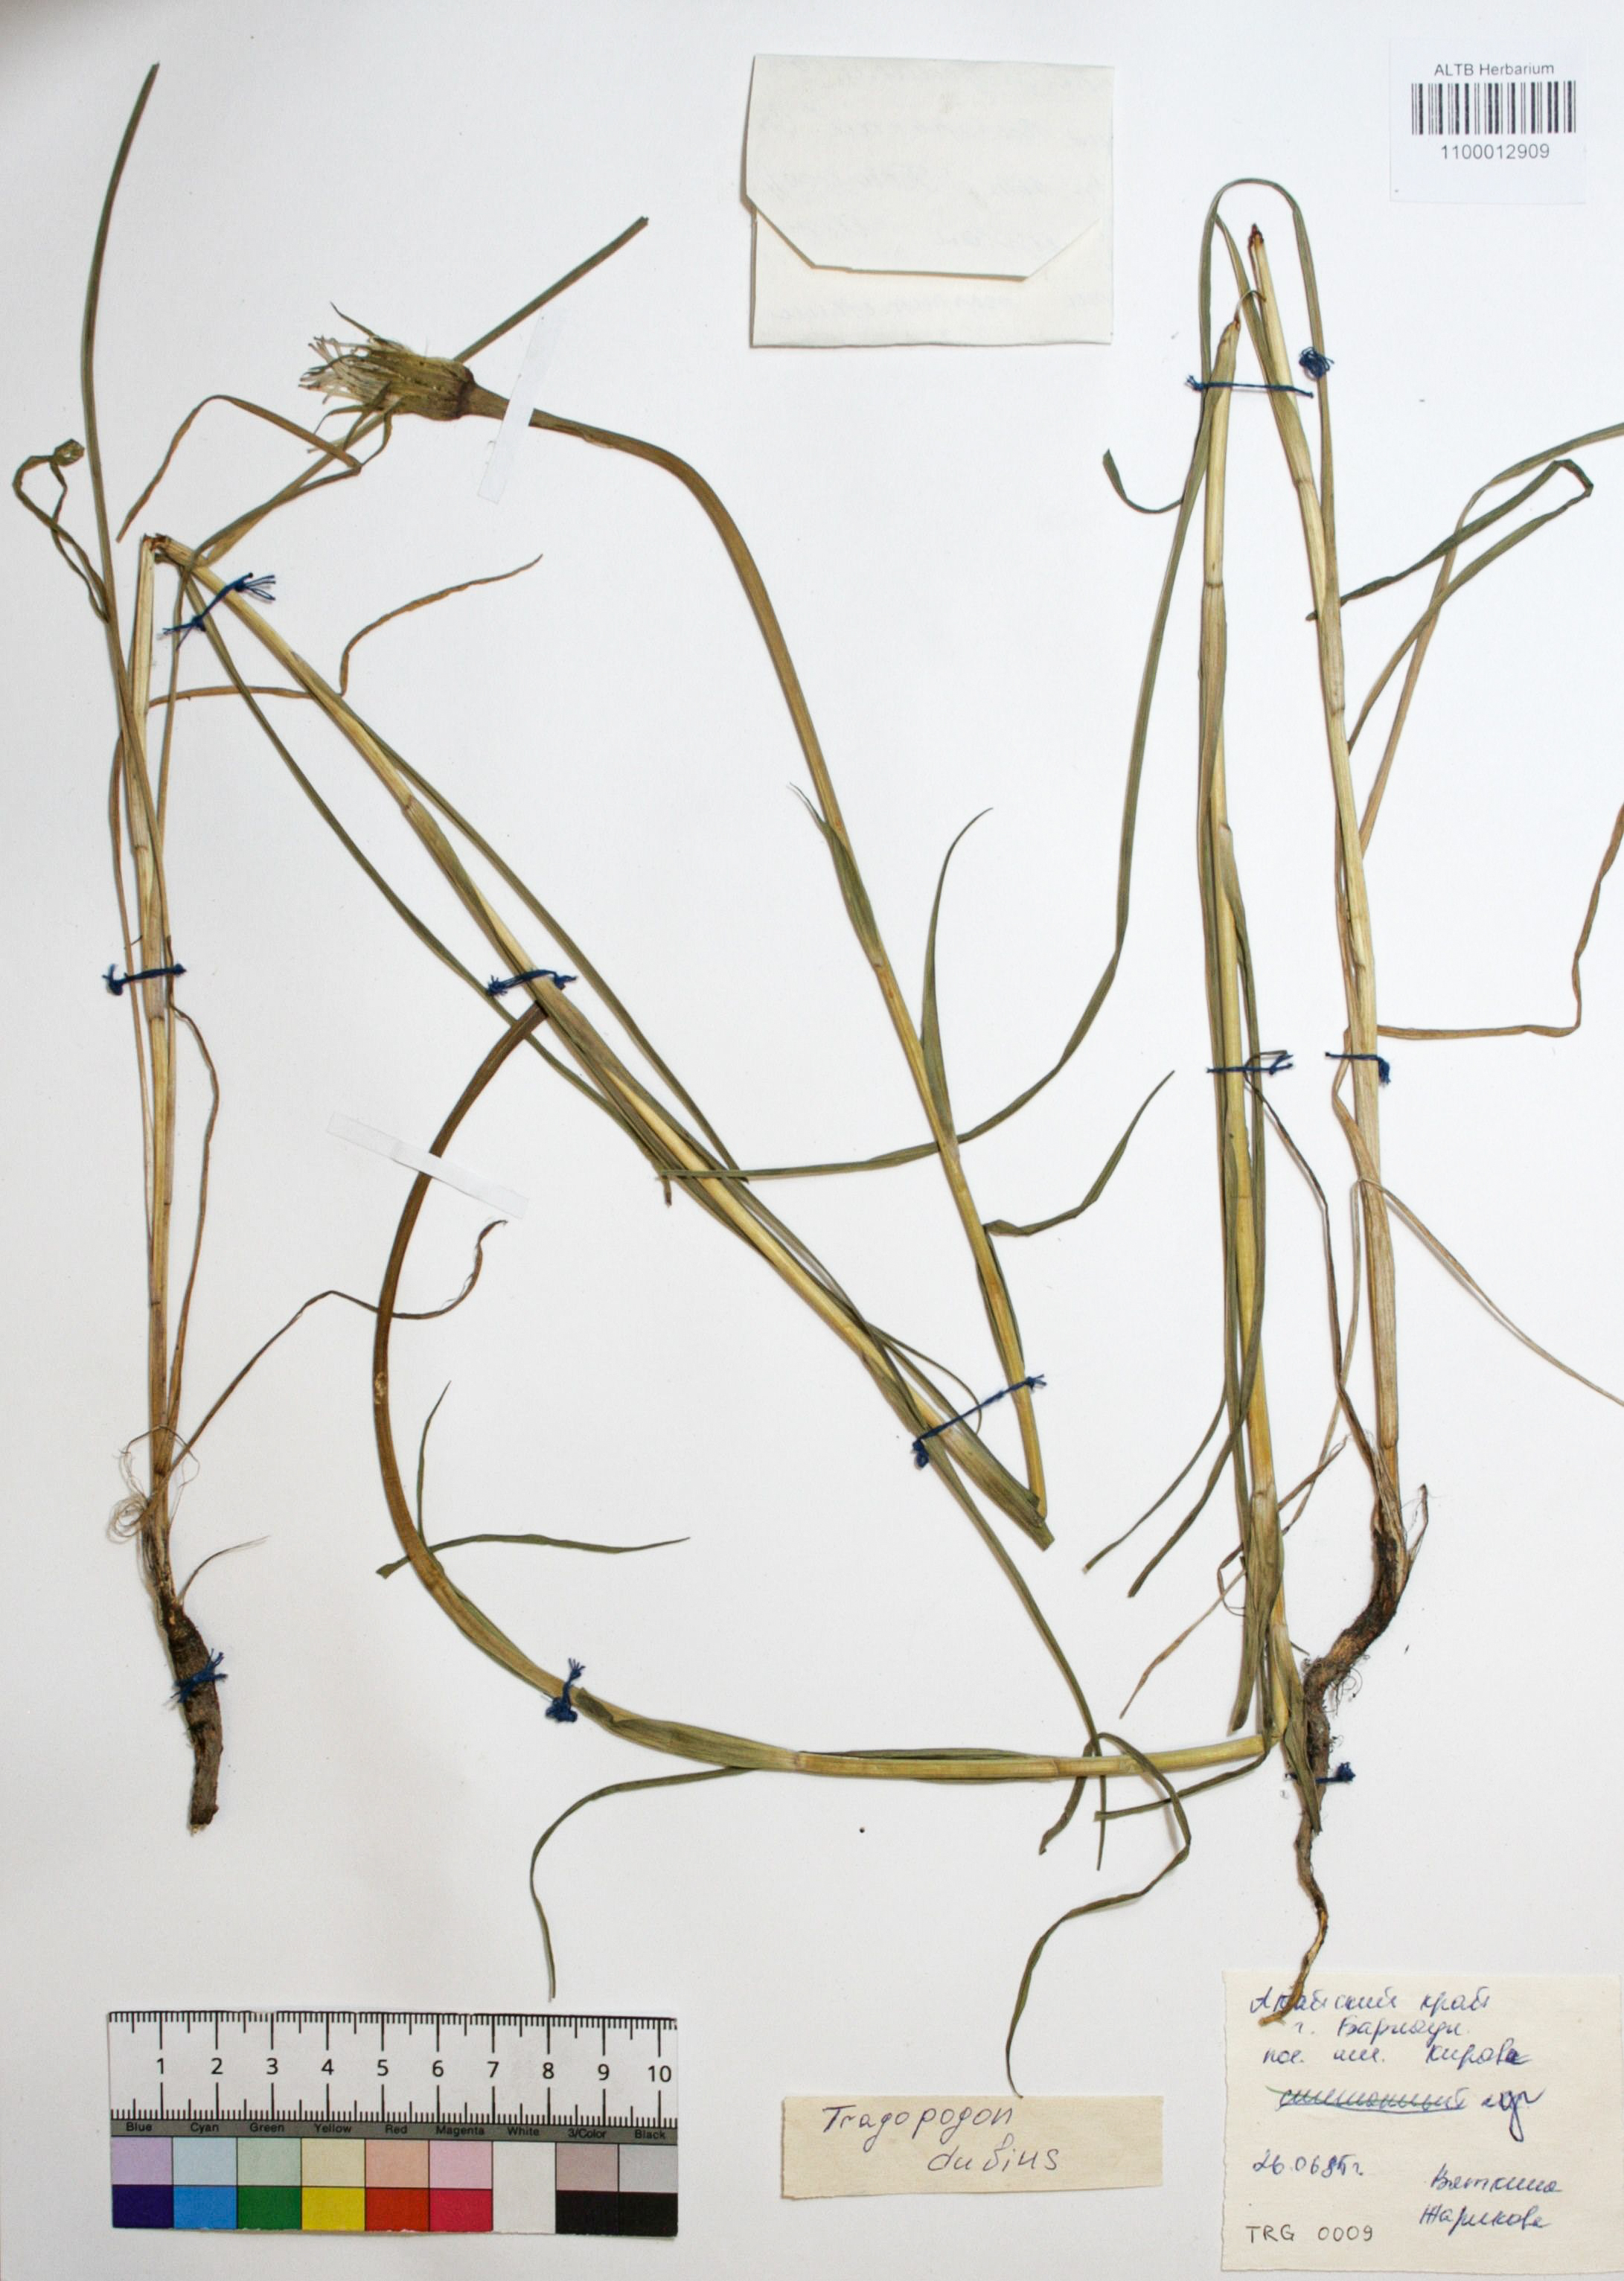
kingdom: Plantae
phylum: Tracheophyta
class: Magnoliopsida
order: Asterales
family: Asteraceae
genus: Tragopogon
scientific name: Tragopogon dubius
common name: Yellow salsify
